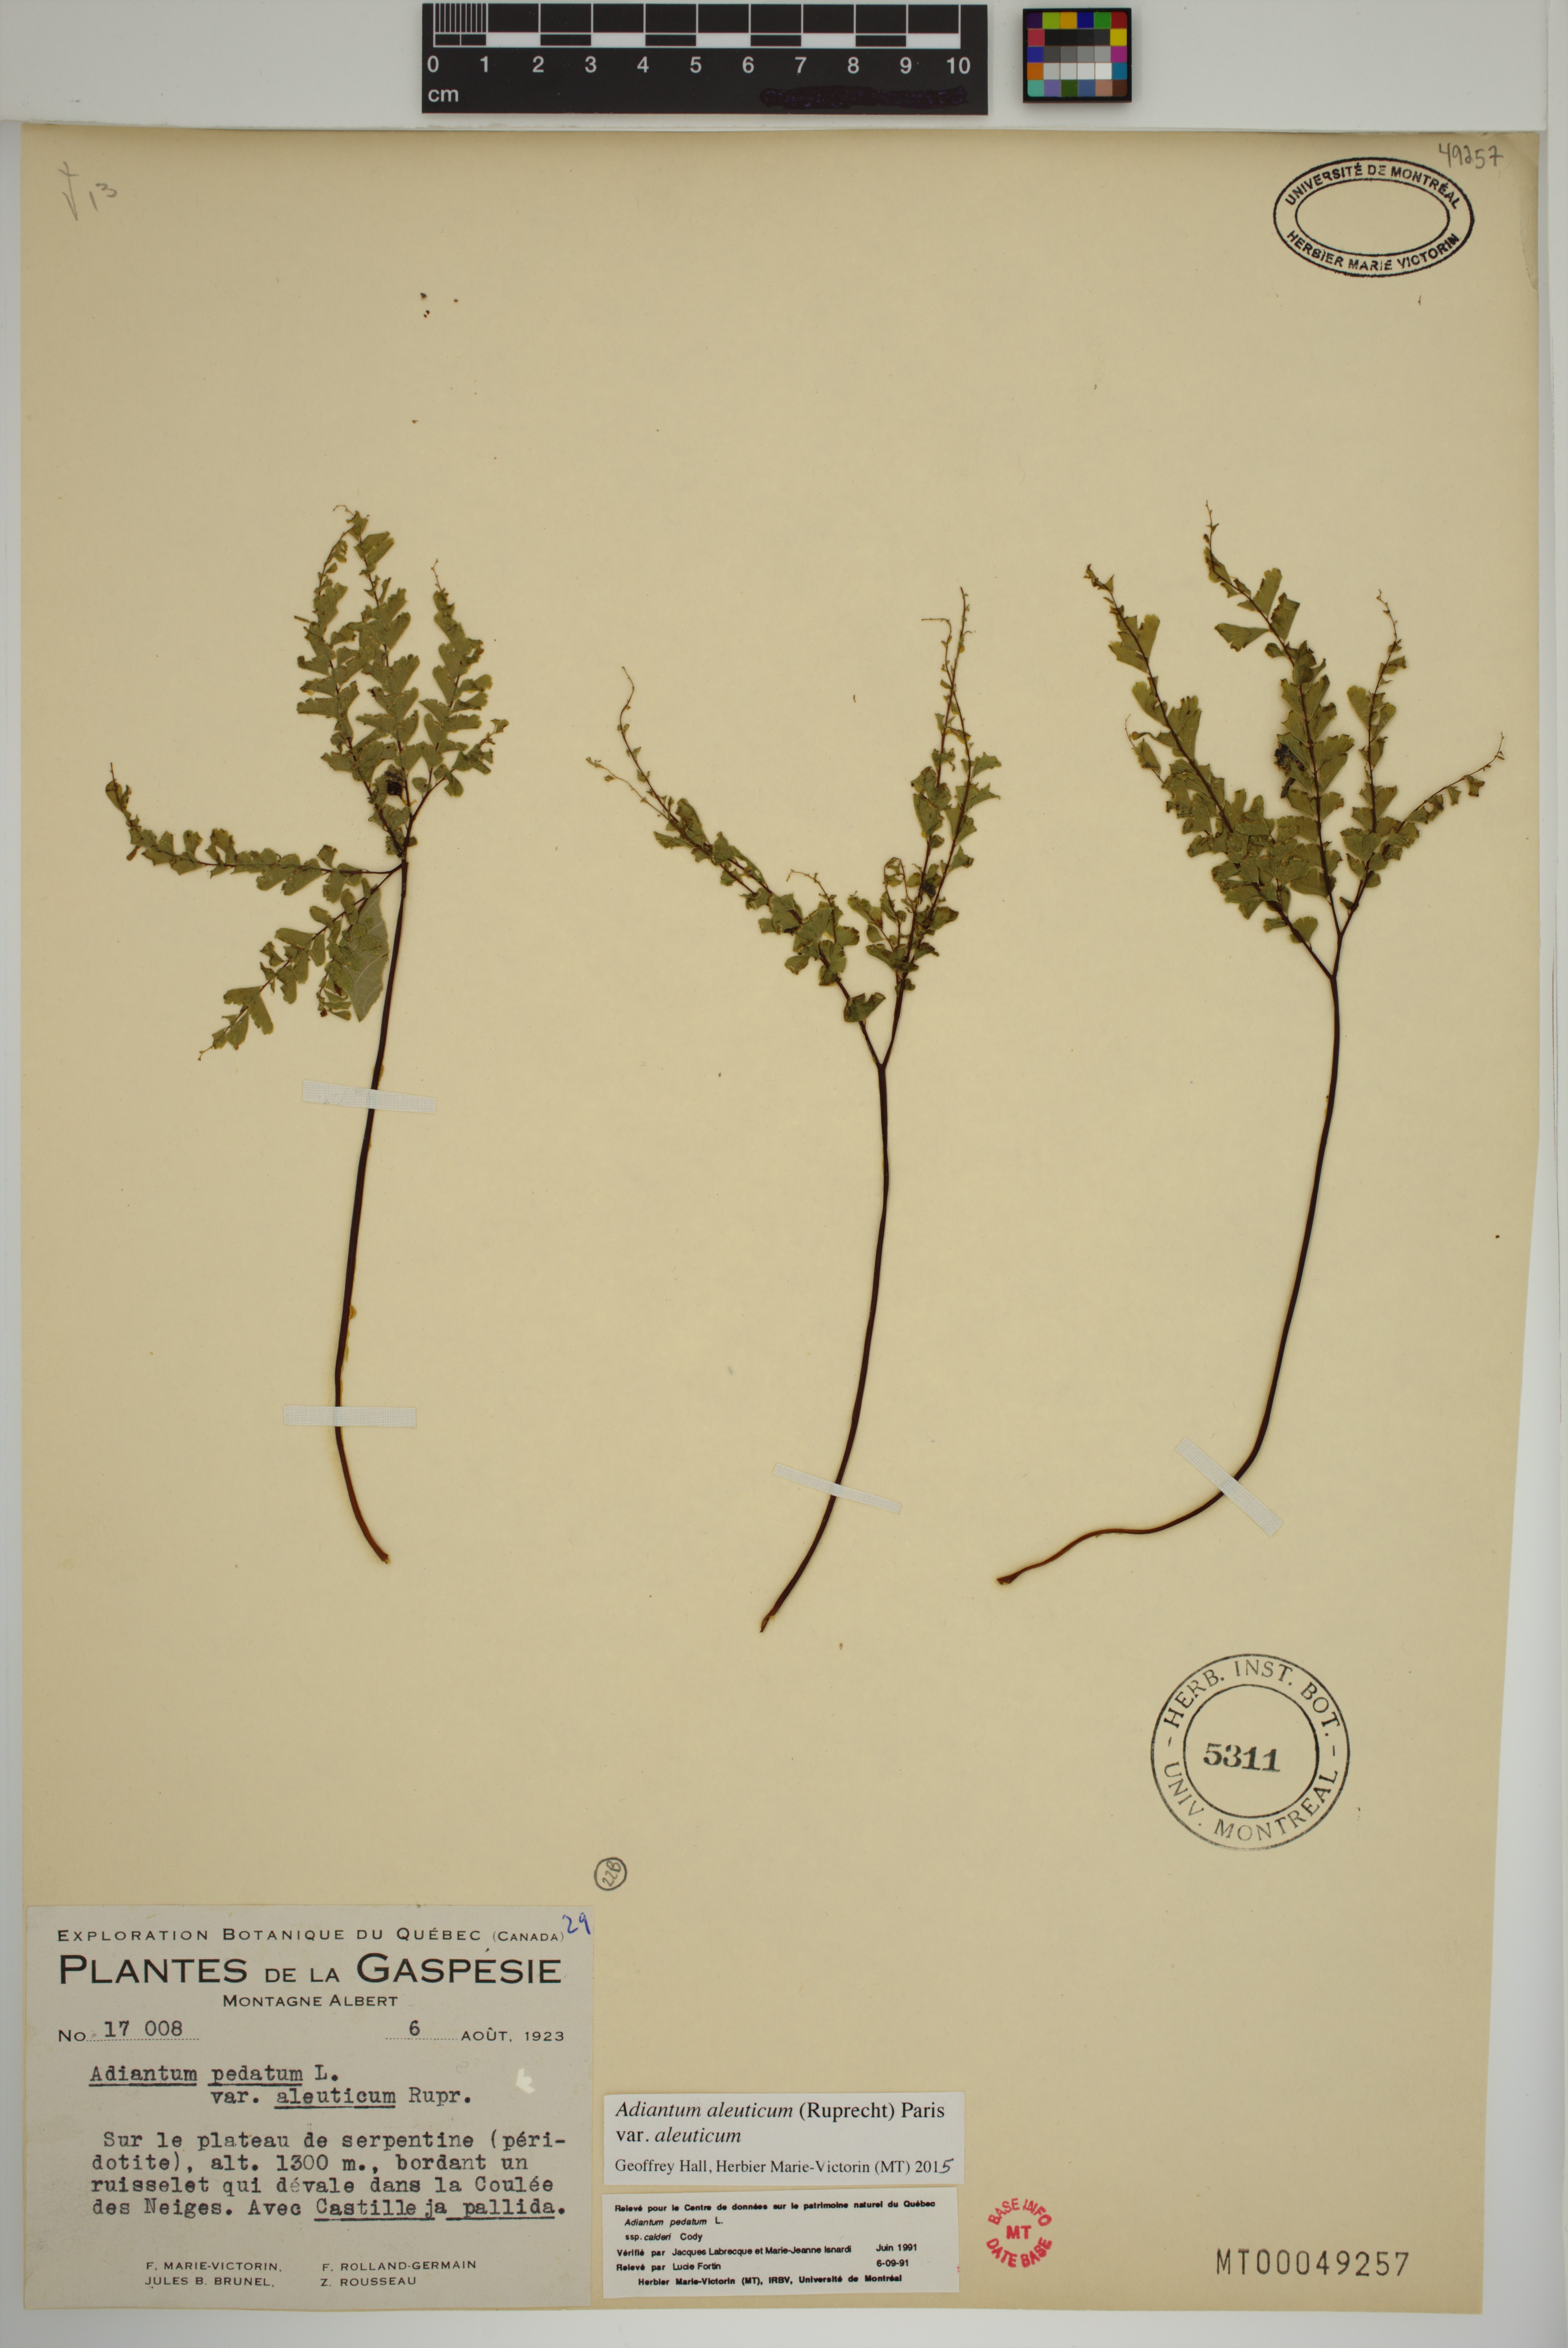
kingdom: Plantae
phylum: Tracheophyta
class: Polypodiopsida
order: Polypodiales
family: Pteridaceae
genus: Adiantum
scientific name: Adiantum aleuticum
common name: Aleutian maidenhair fern
